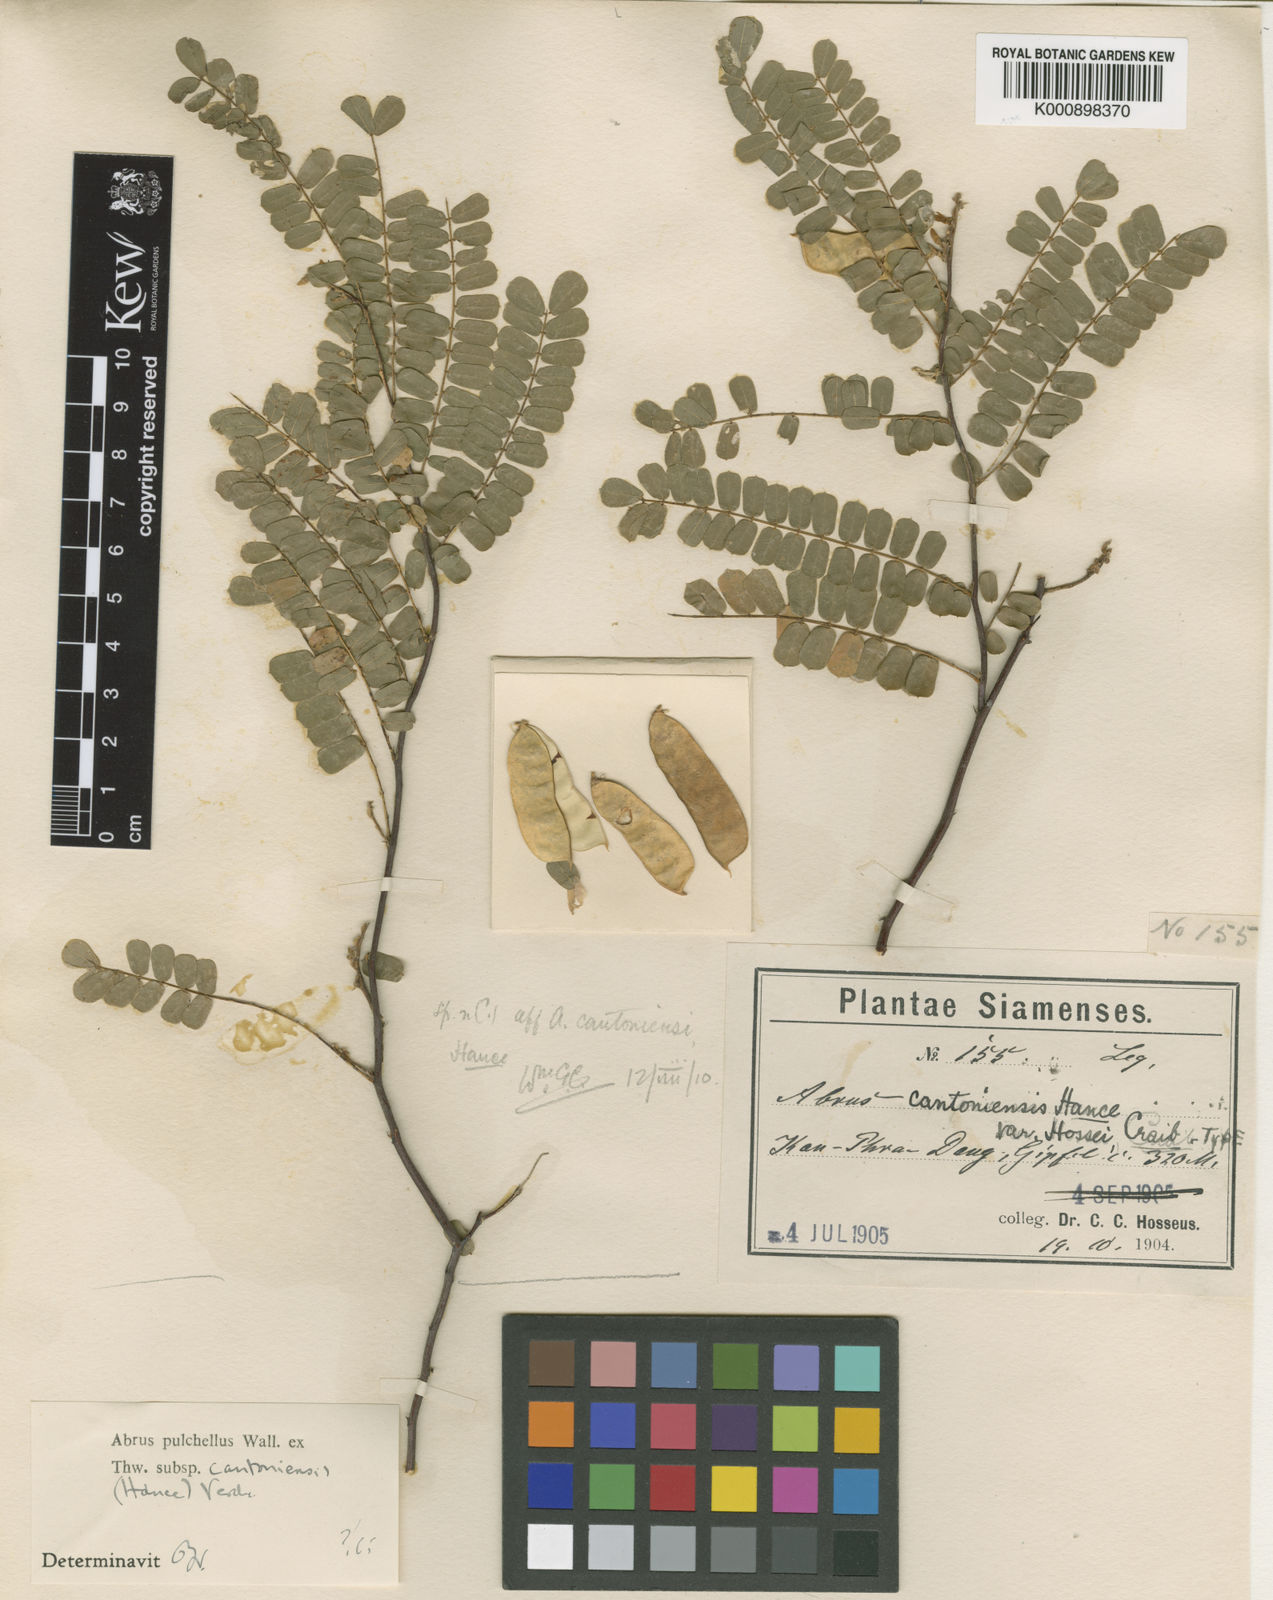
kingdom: Plantae
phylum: Tracheophyta
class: Magnoliopsida
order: Fabales
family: Fabaceae
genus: Abrus
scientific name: Abrus melanospermus
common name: Licorice-root
